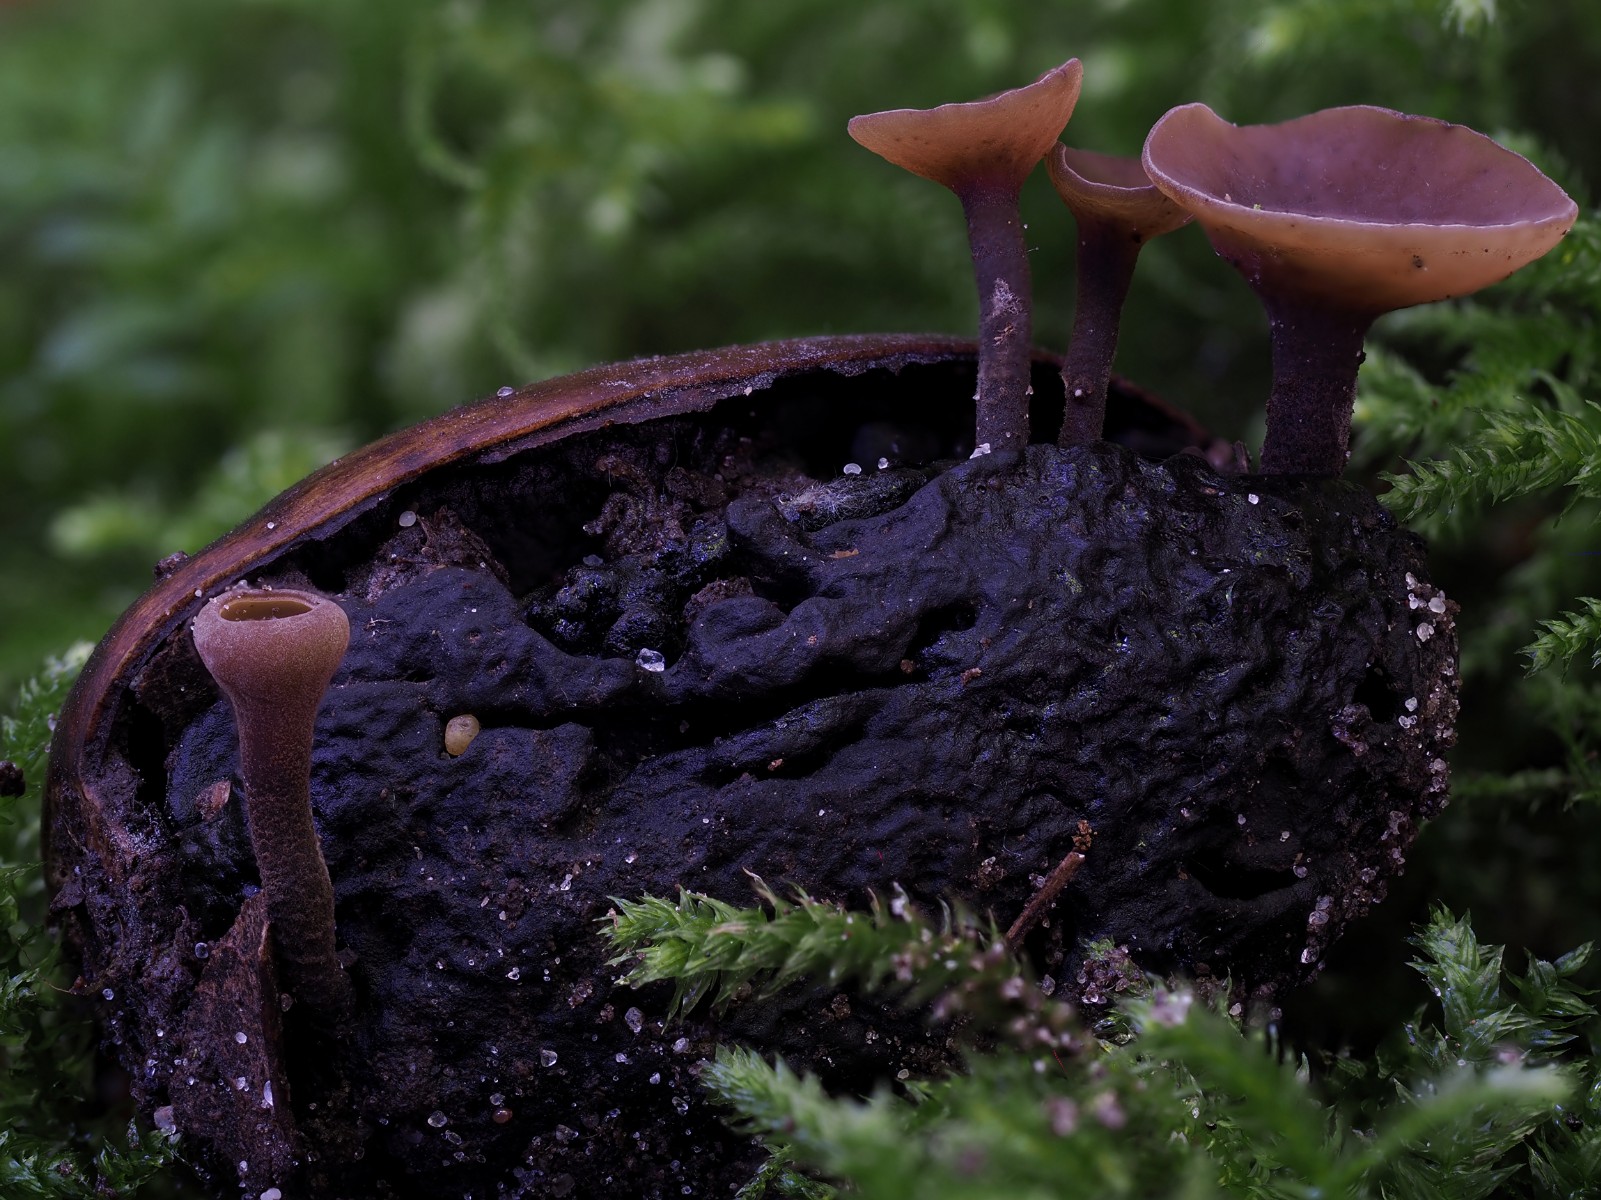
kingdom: Fungi
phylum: Ascomycota
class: Leotiomycetes
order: Helotiales
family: Sclerotiniaceae
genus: Ciboria
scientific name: Ciboria batschiana
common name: agern-knoldskive
